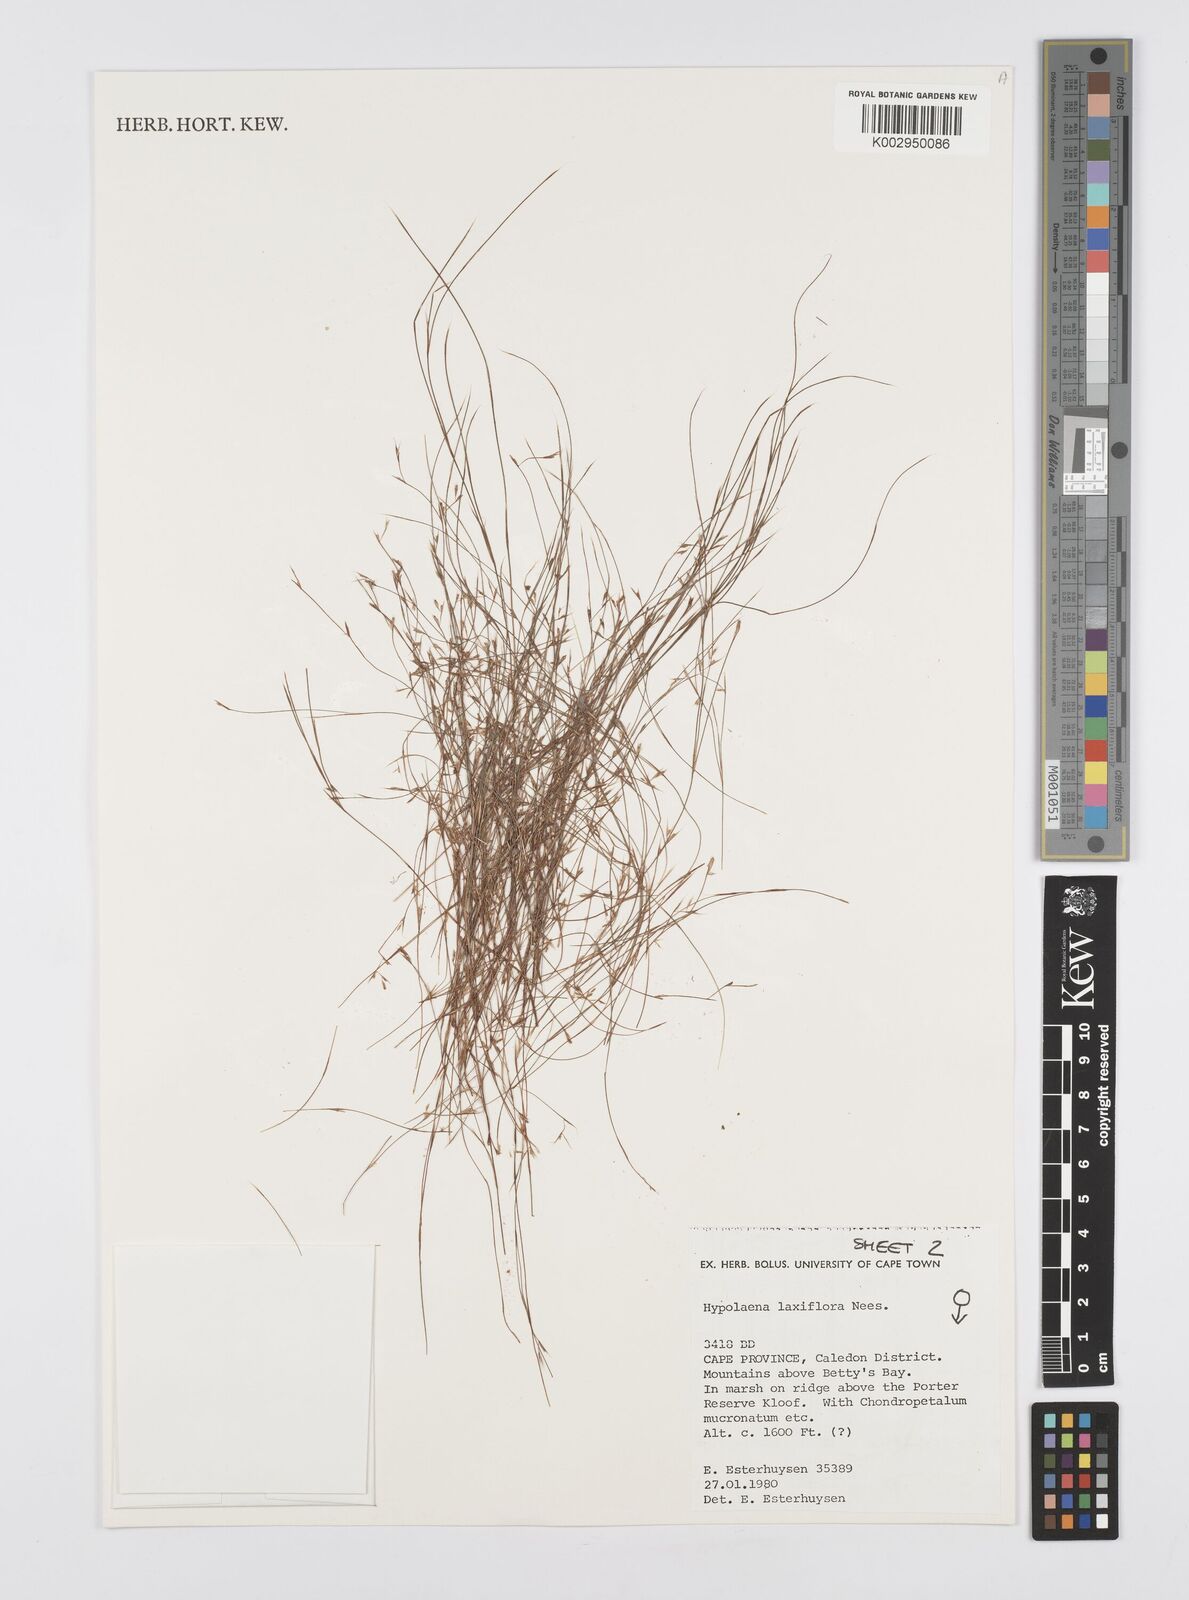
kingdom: Plantae
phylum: Tracheophyta
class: Liliopsida
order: Poales
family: Restionaceae
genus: Anthochortus
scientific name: Anthochortus laxiflorus
